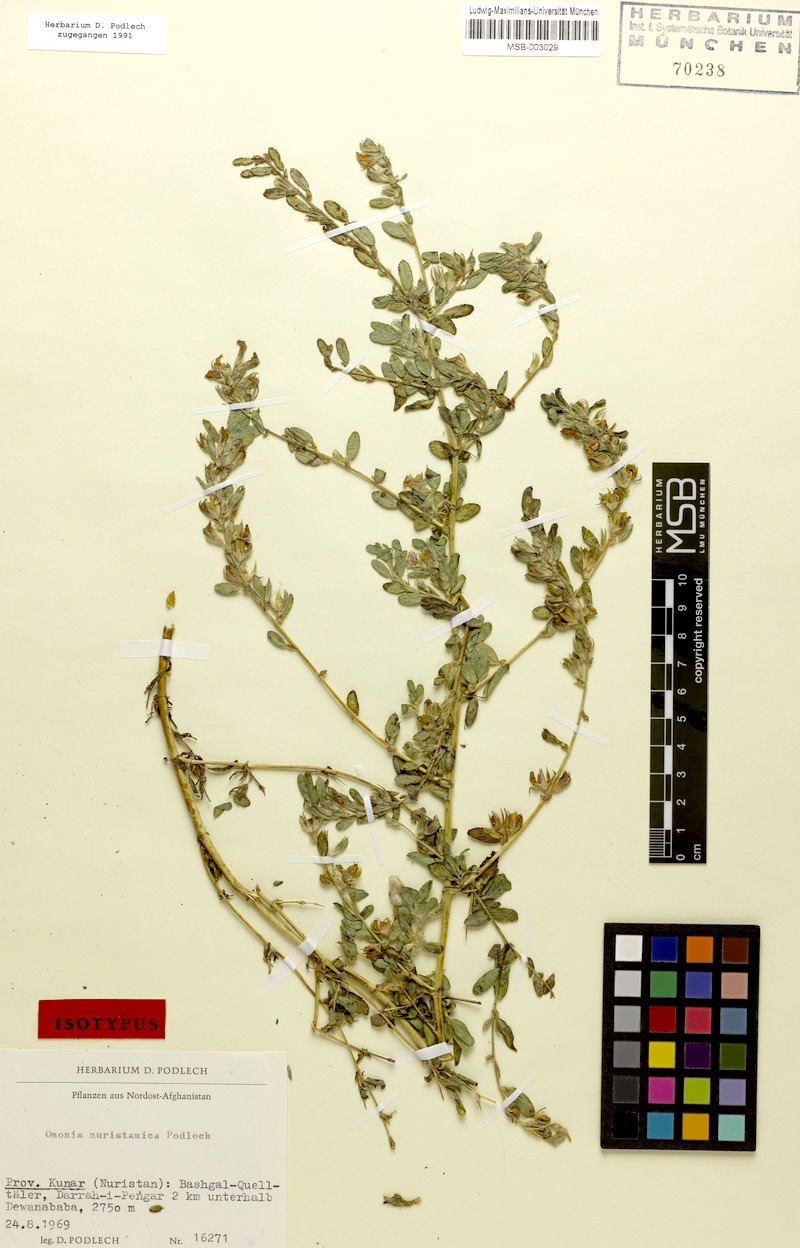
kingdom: Plantae
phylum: Tracheophyta
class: Magnoliopsida
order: Fabales
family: Fabaceae
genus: Ononis
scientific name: Ononis nuristanica
